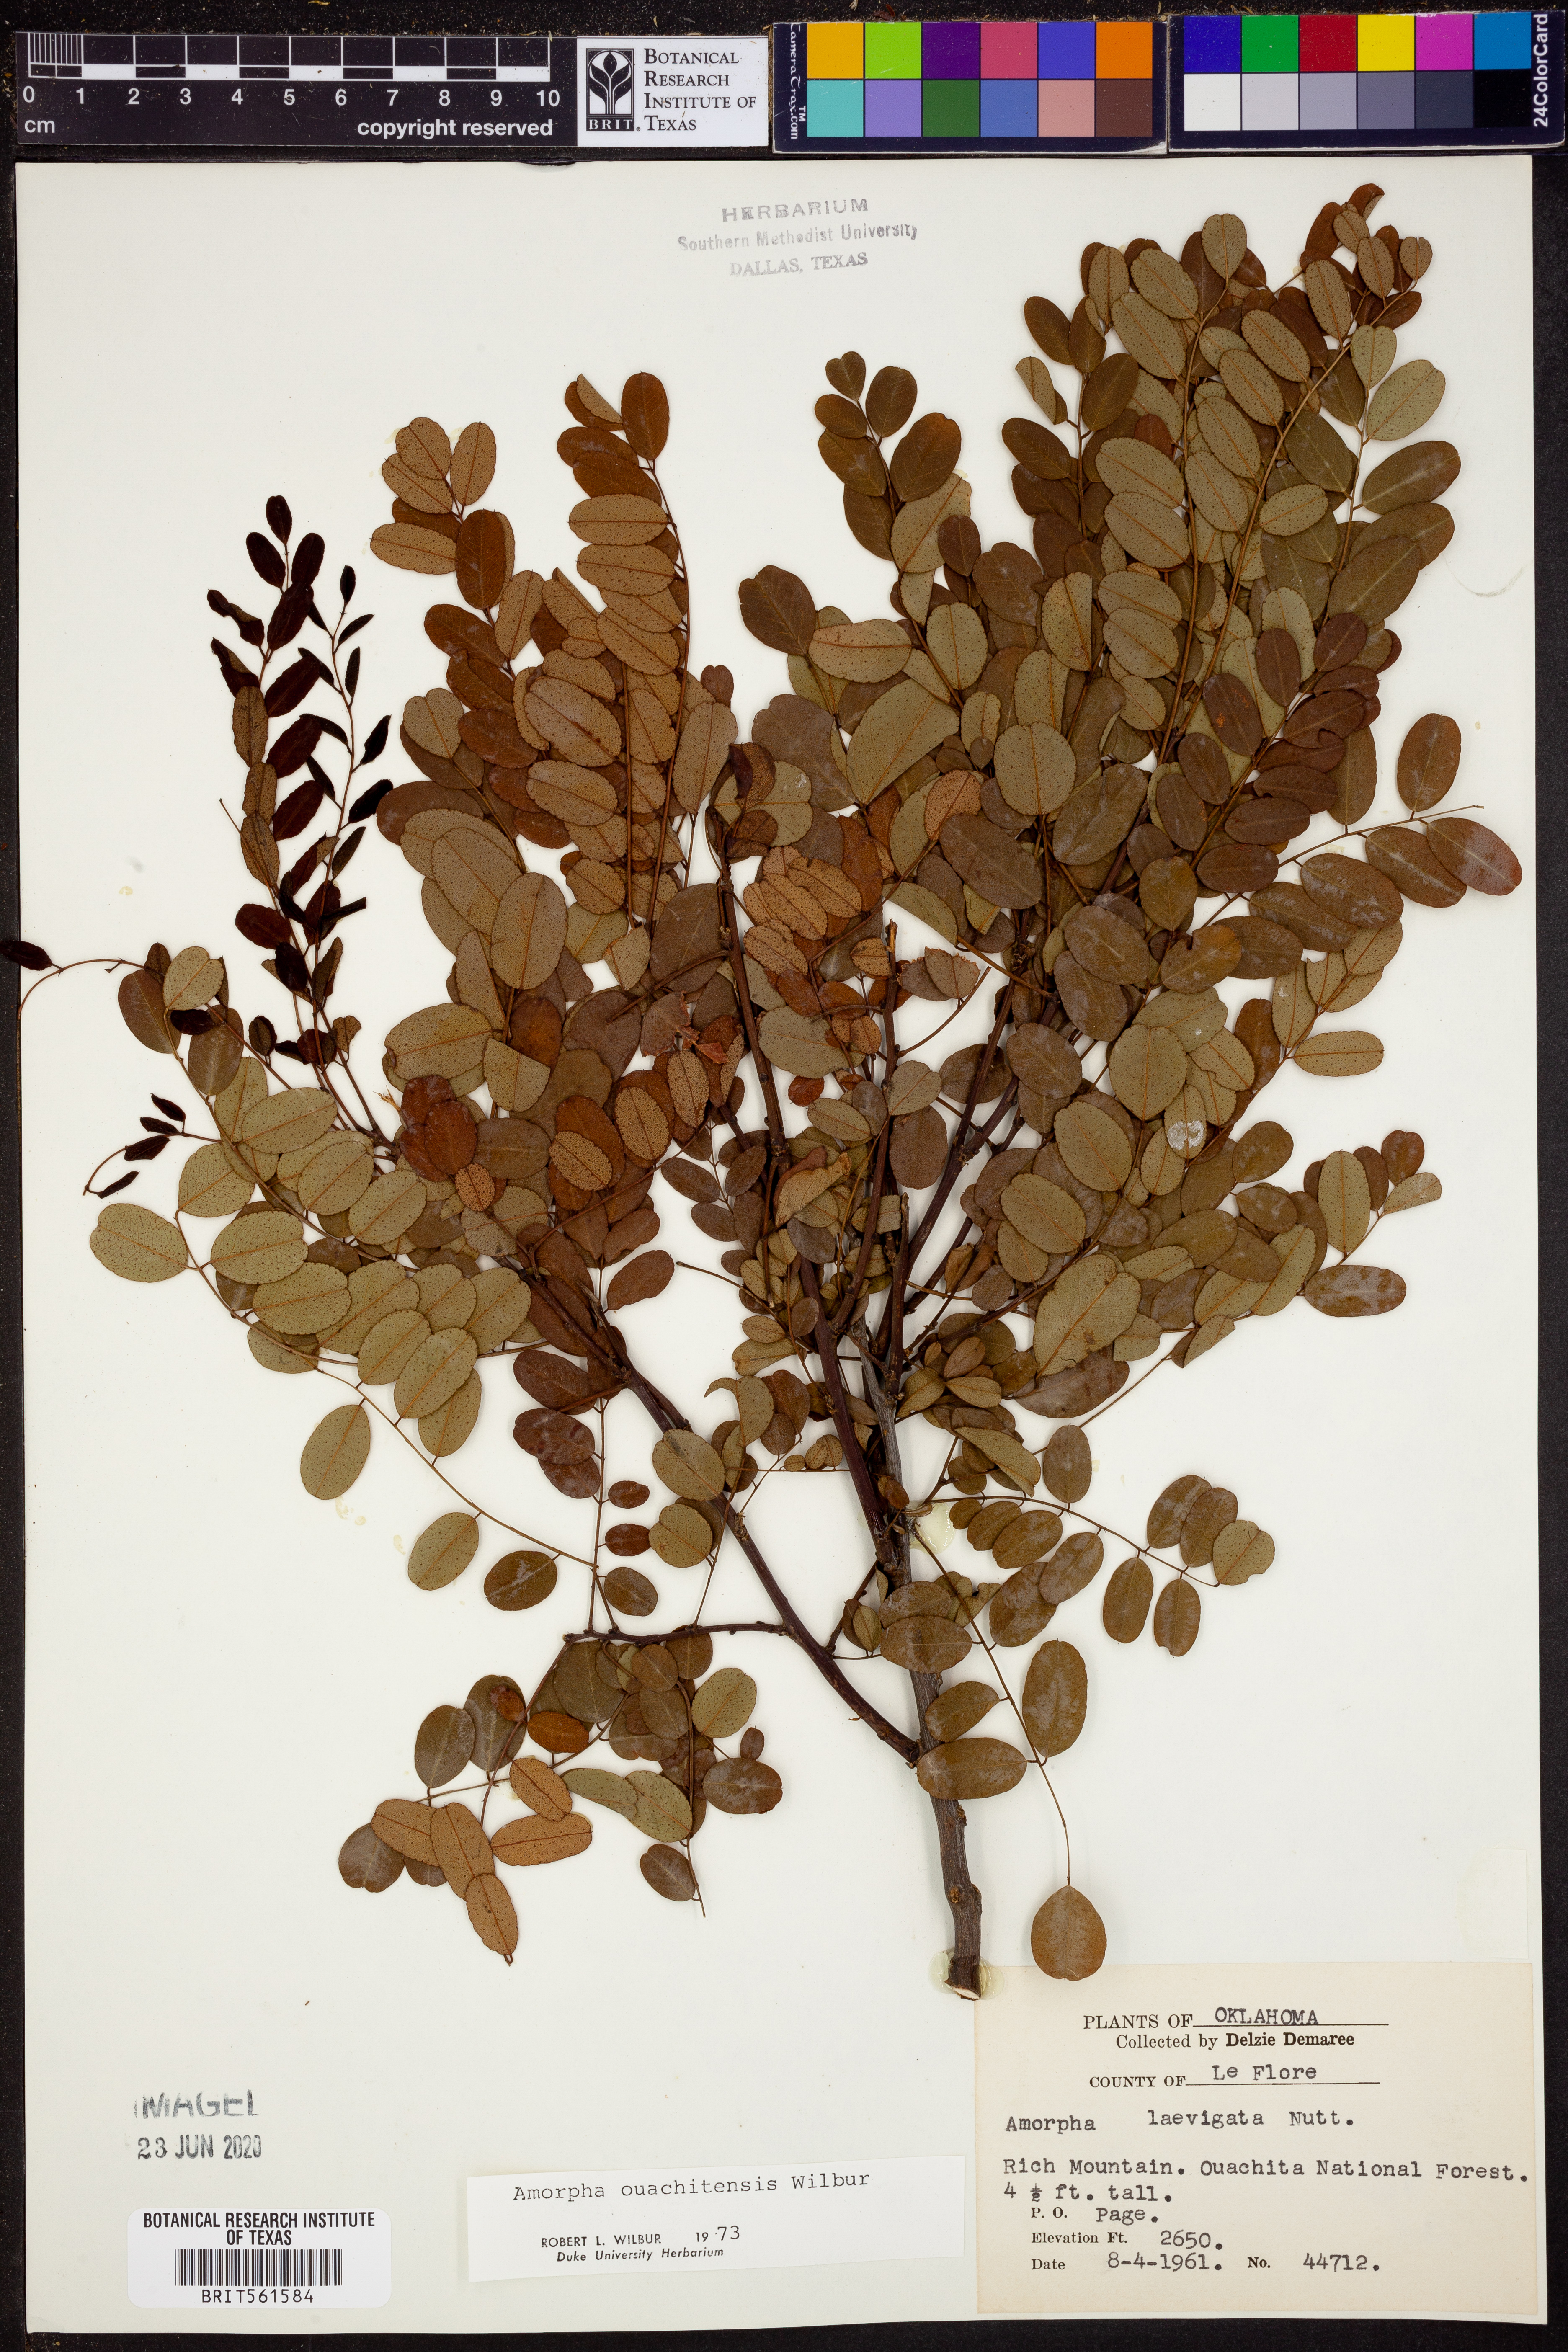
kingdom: Plantae
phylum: Tracheophyta
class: Magnoliopsida
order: Fabales
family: Fabaceae
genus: Amorpha
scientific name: Amorpha ouachitensis
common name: Ouachita false indigo
